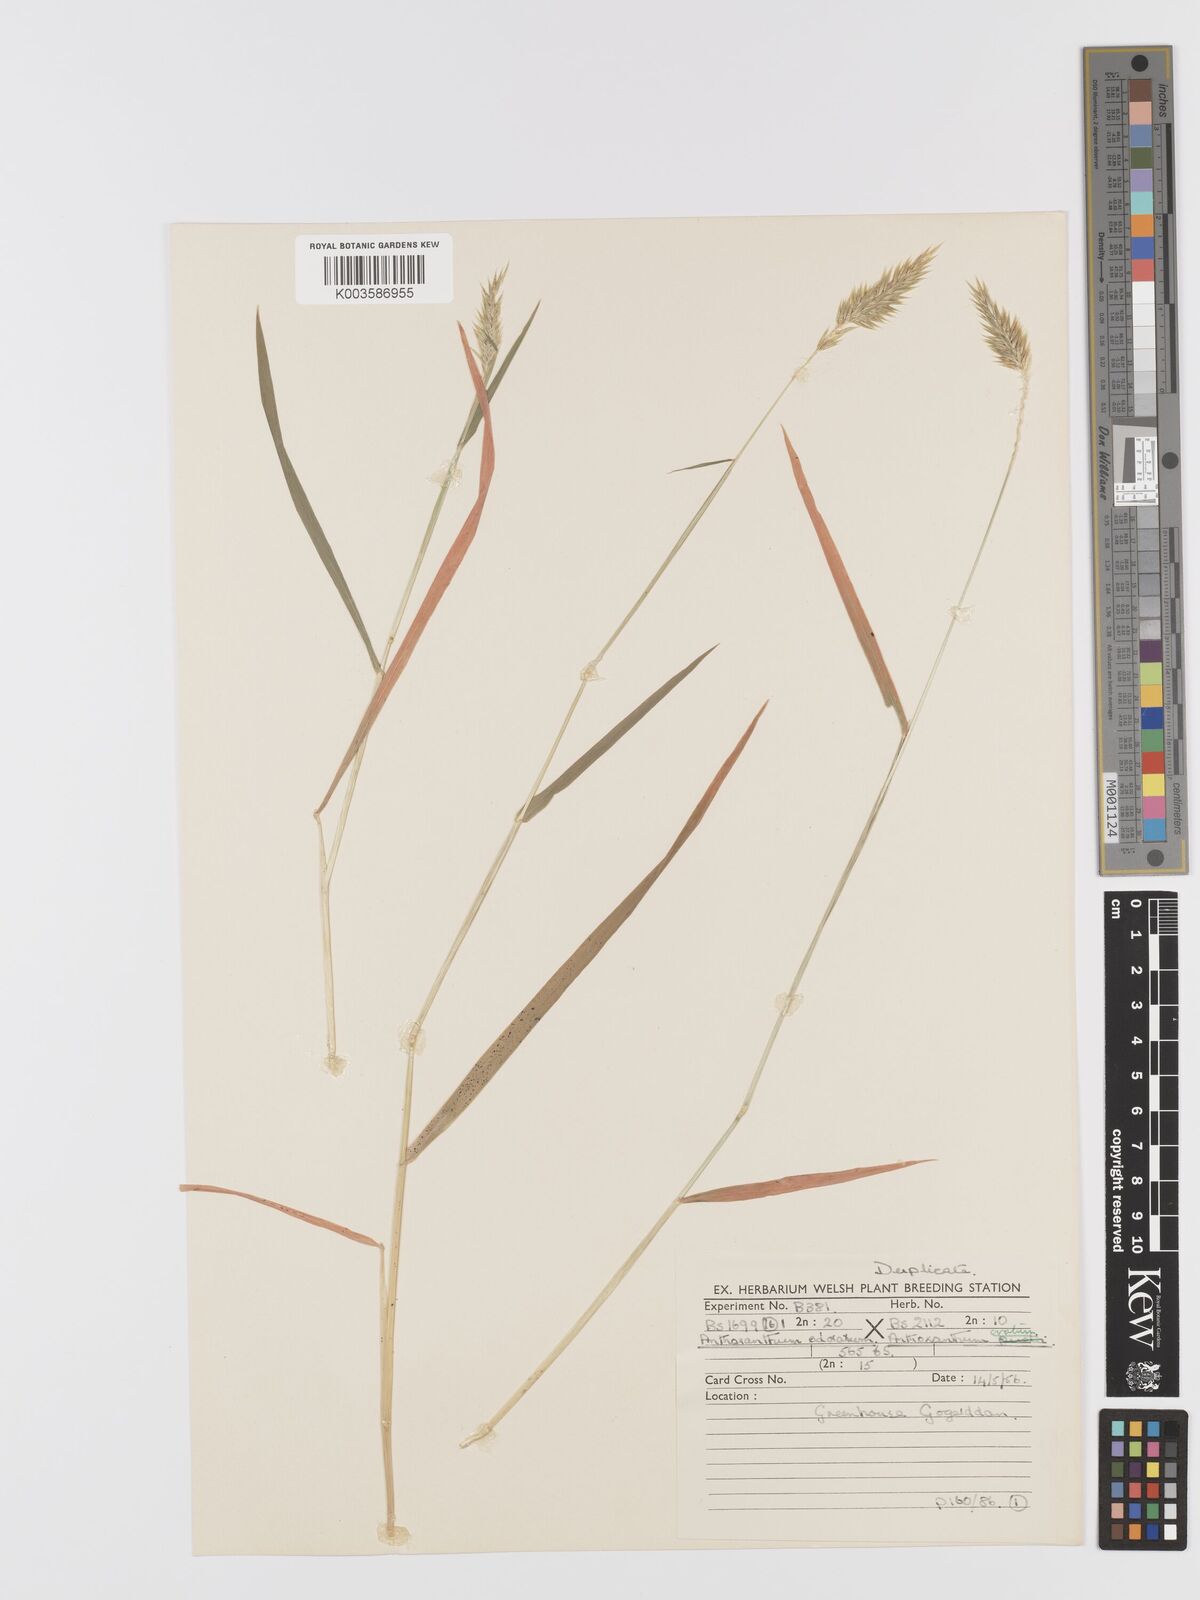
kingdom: Plantae
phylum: Tracheophyta
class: Liliopsida
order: Poales
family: Poaceae
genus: Anthoxanthum
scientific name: Anthoxanthum odoratum
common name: Sweet vernalgrass
